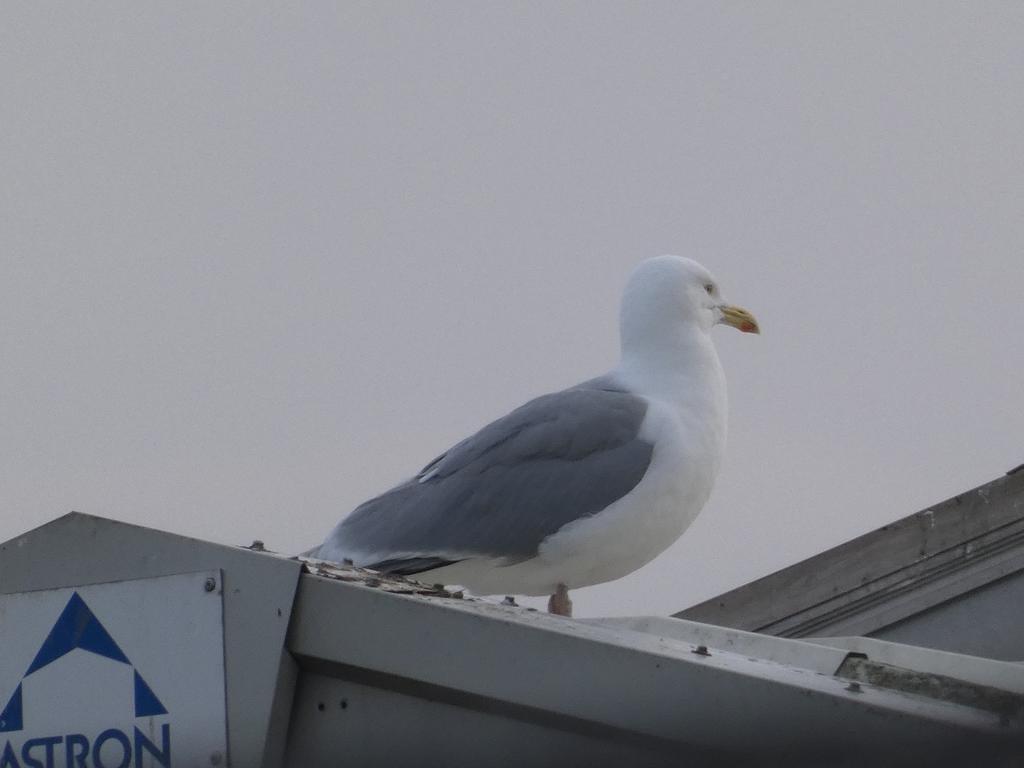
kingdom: Animalia
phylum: Chordata
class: Aves
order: Charadriiformes
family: Laridae
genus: Larus
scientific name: Larus argentatus
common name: Sølvmåge
